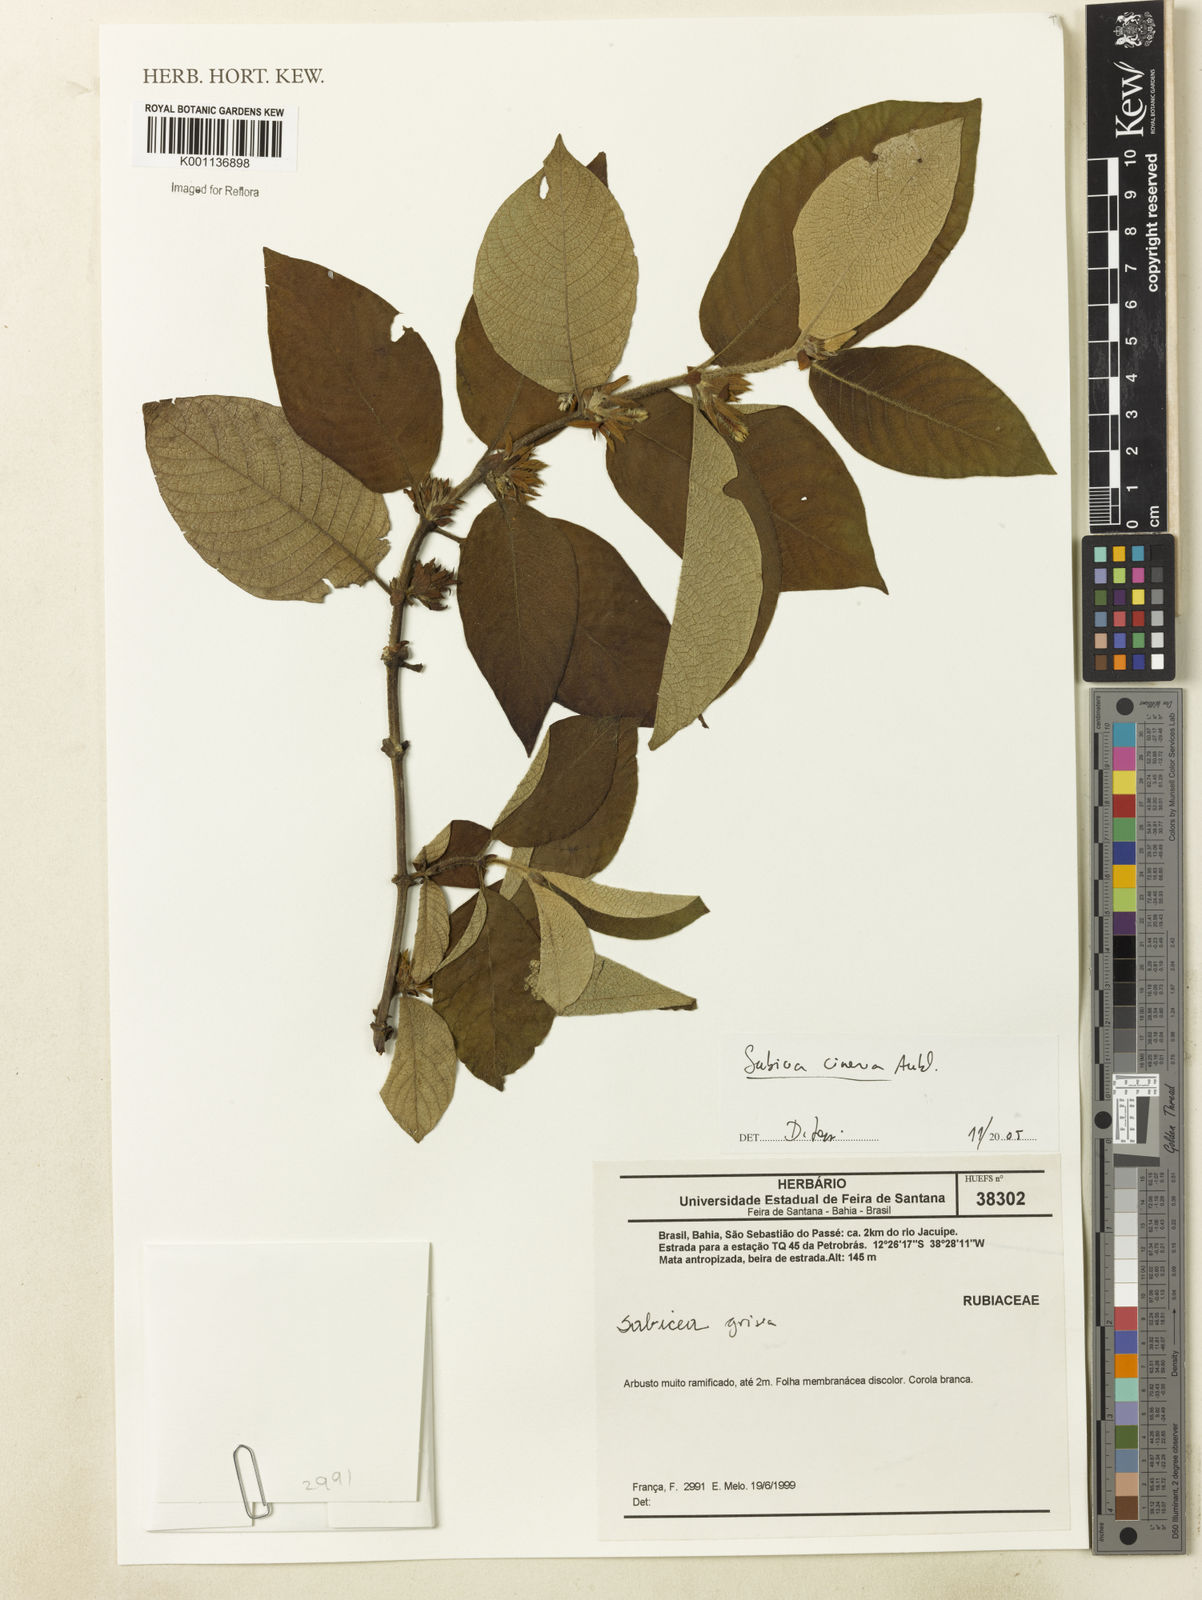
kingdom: Plantae
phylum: Tracheophyta
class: Magnoliopsida
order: Gentianales
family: Rubiaceae
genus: Sabicea
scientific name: Sabicea cinerea
